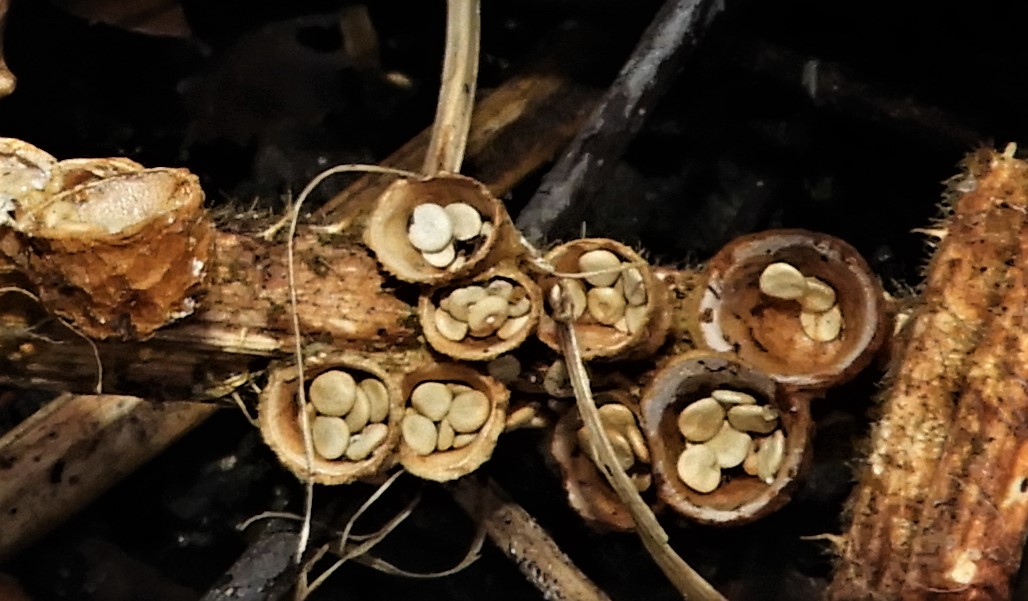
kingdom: Fungi
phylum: Basidiomycota
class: Agaricomycetes
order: Agaricales
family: Nidulariaceae
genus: Crucibulum
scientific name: Crucibulum crucibuliforme
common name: krukkesvamp
